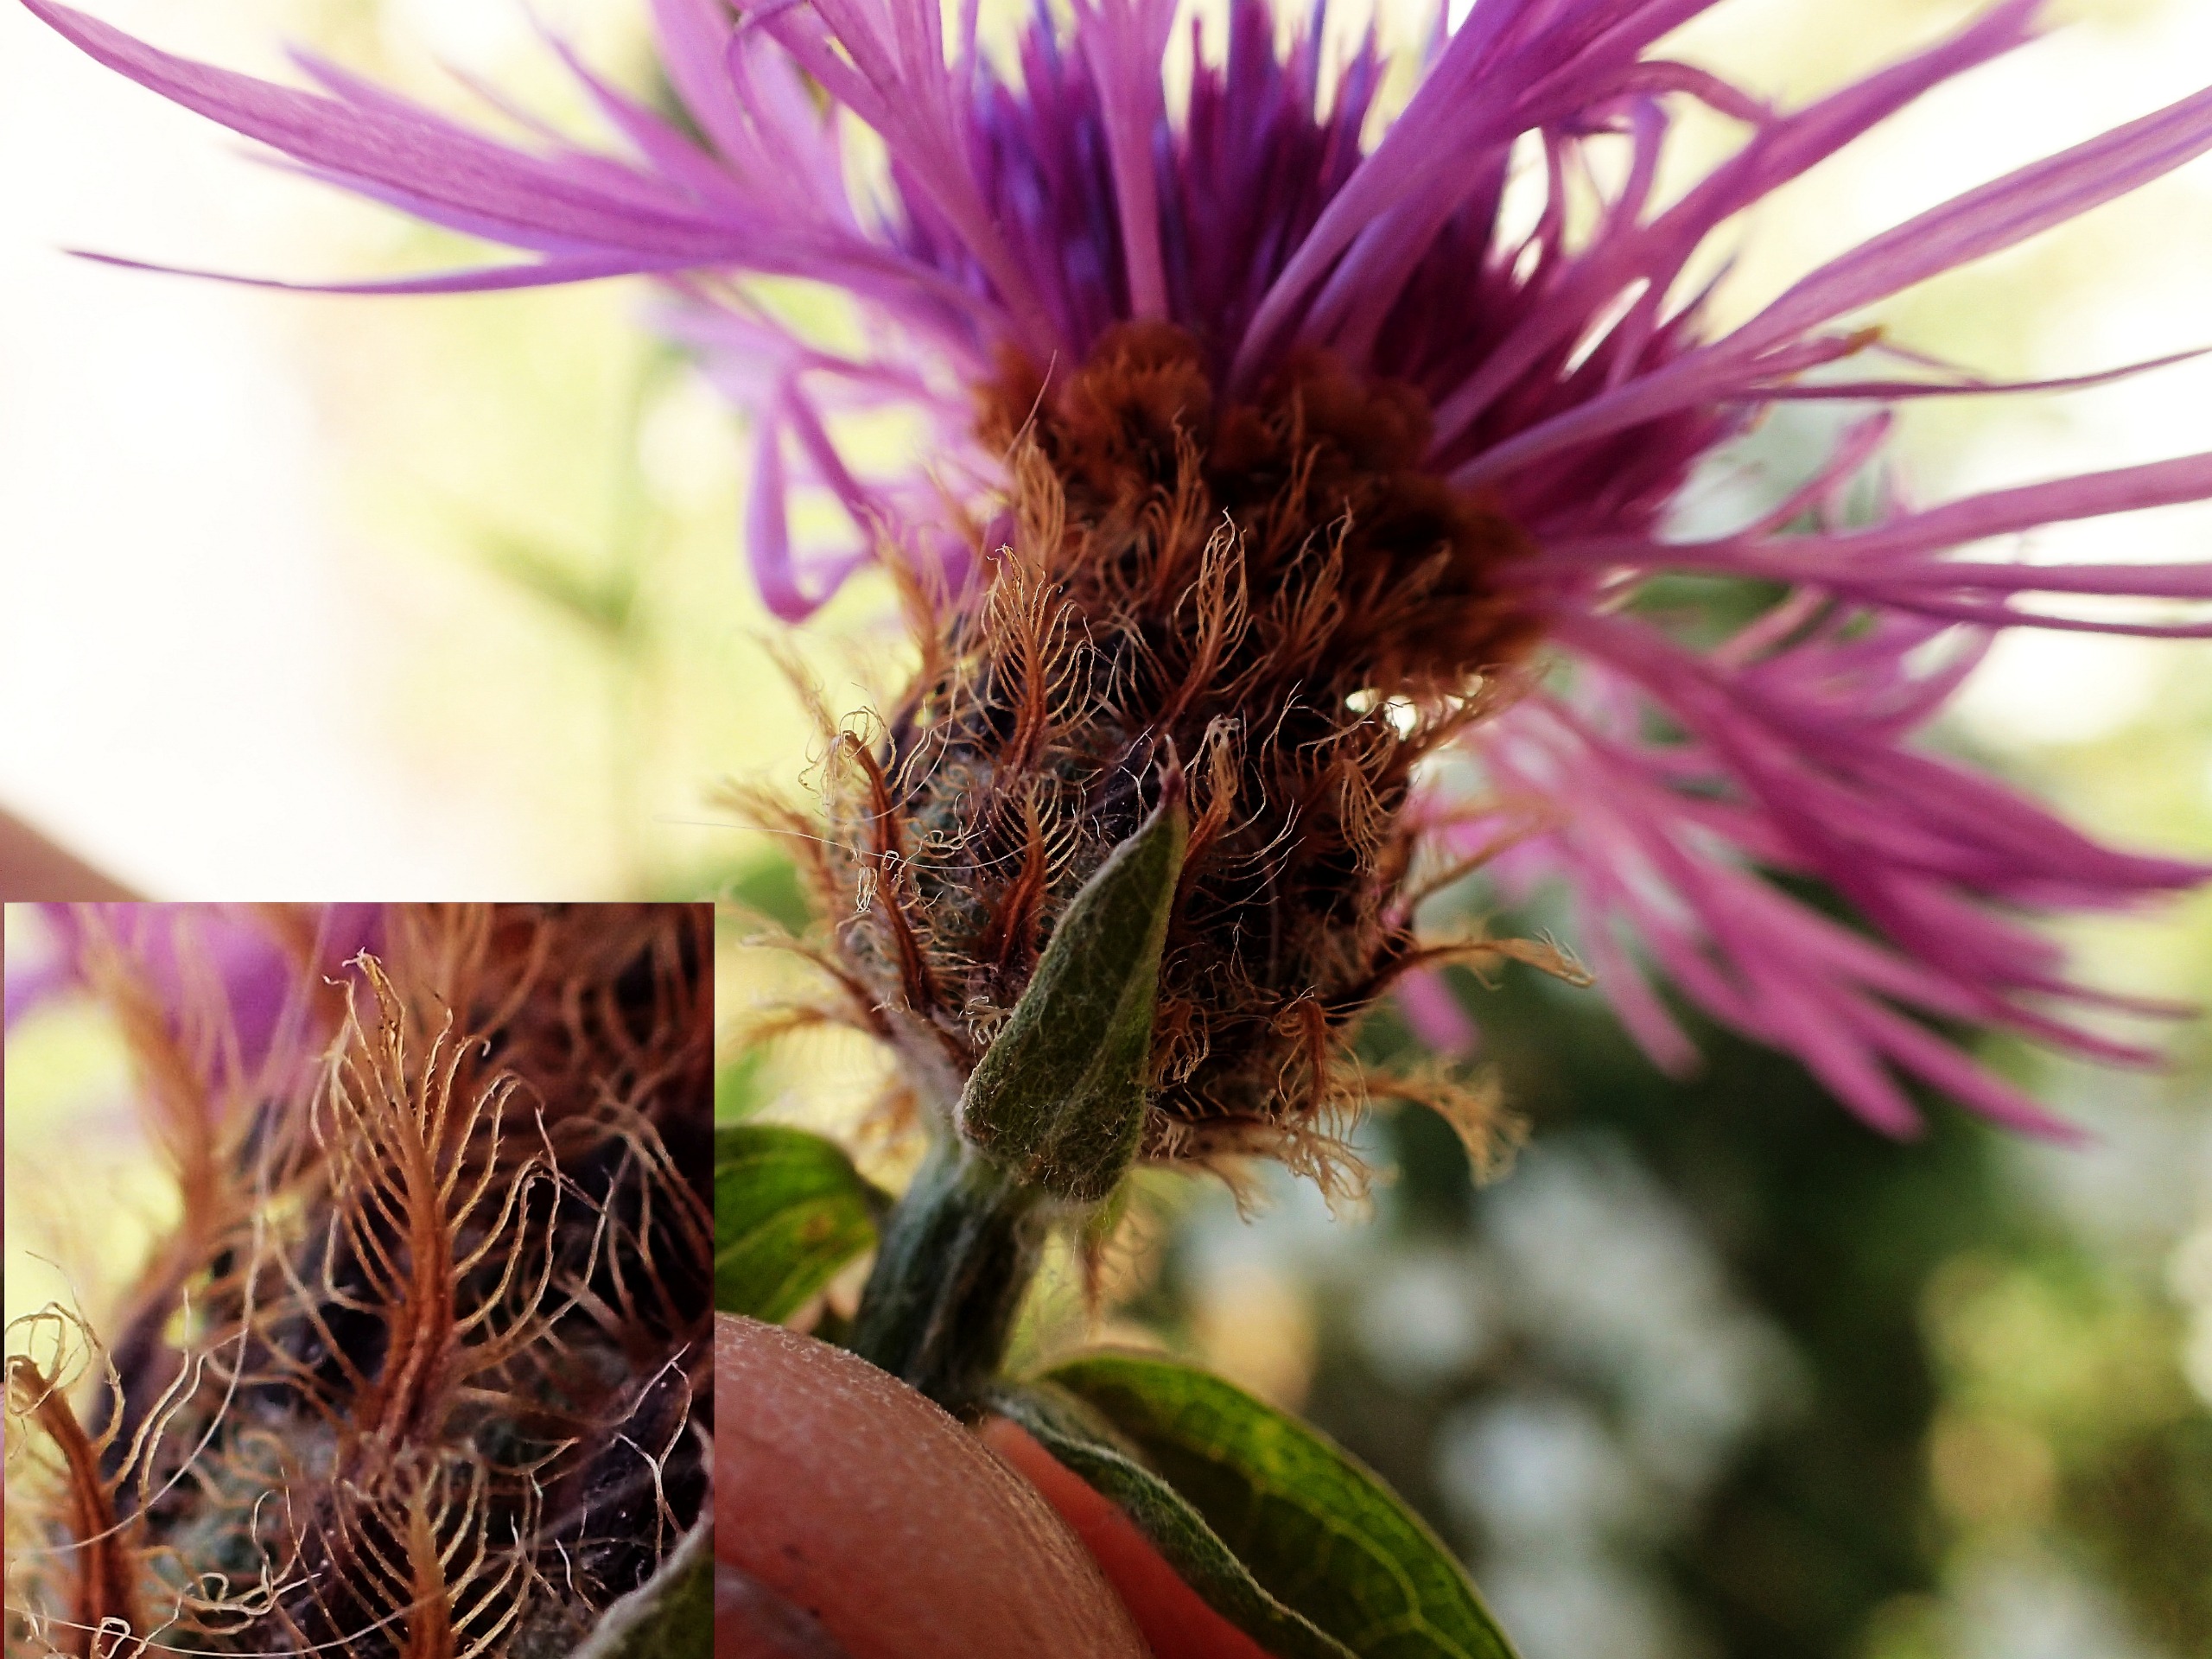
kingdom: Plantae
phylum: Tracheophyta
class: Magnoliopsida
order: Asterales
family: Asteraceae
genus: Centaurea
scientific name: Centaurea
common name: Knopurtslægten
